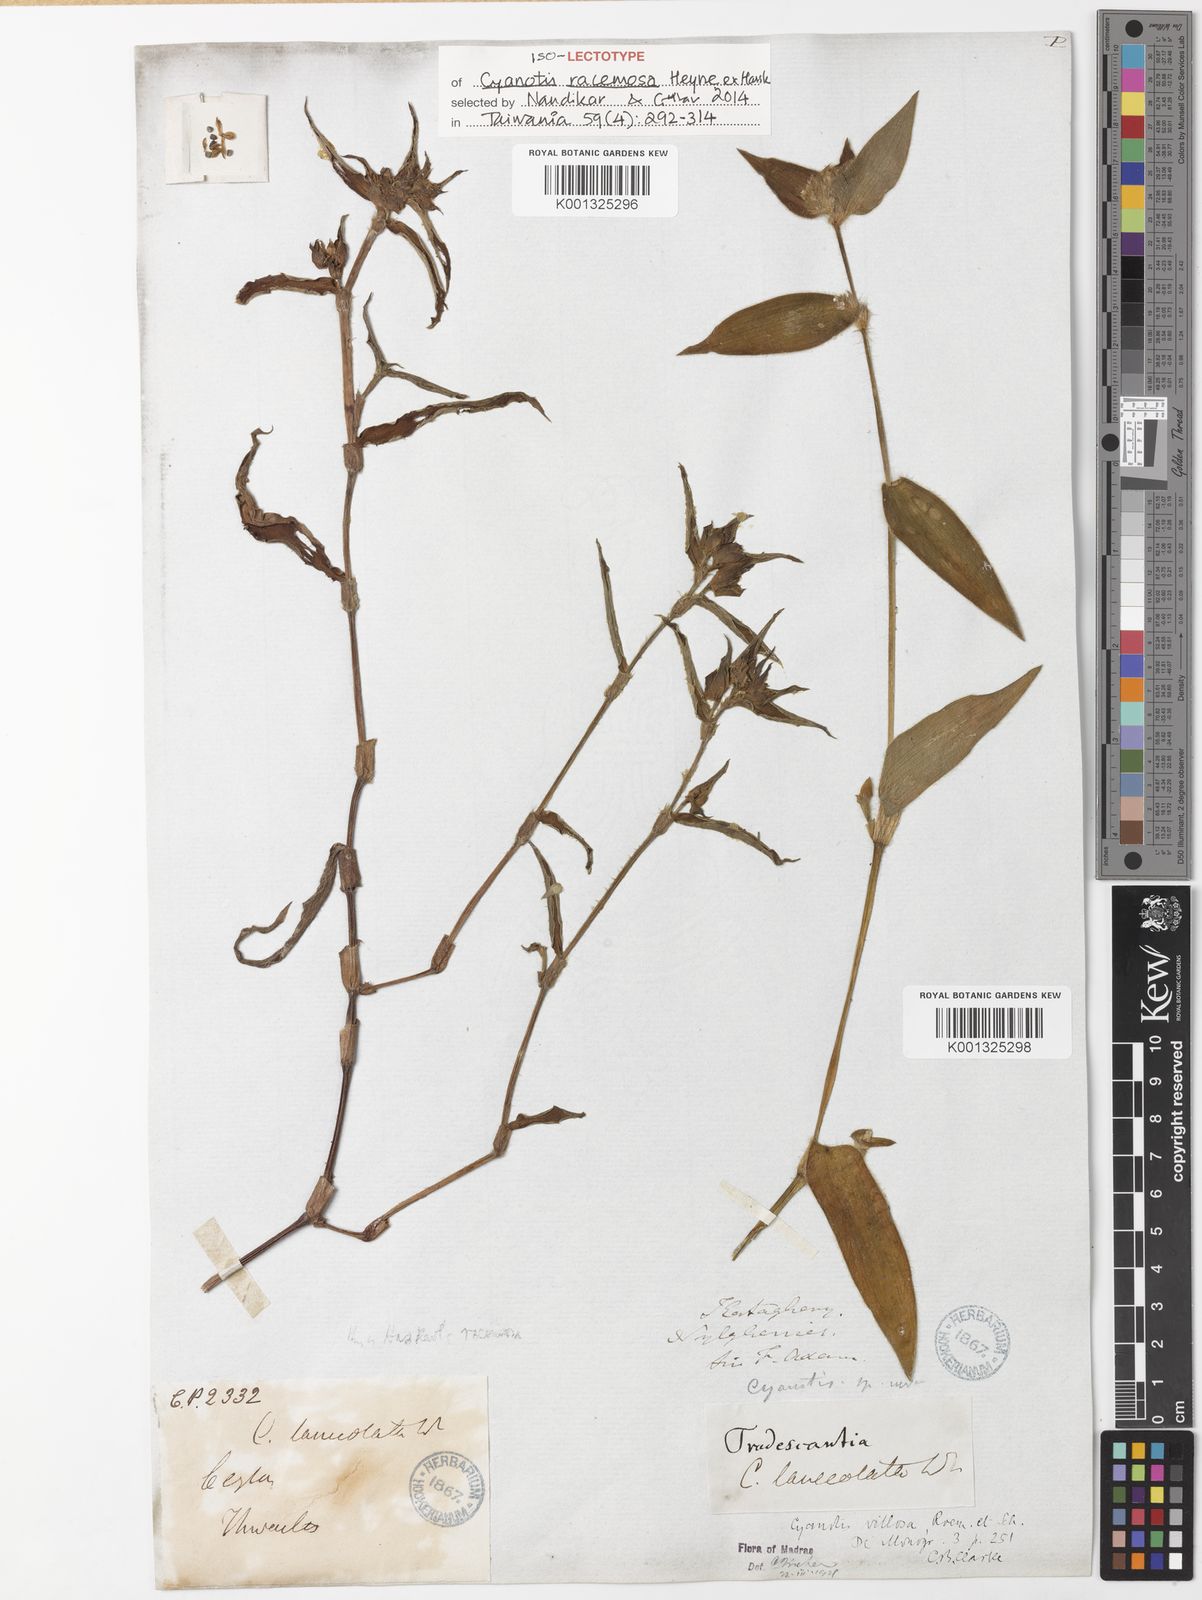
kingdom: Plantae
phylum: Tracheophyta
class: Liliopsida
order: Commelinales
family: Commelinaceae
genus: Cyanotis
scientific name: Cyanotis lanceolata
